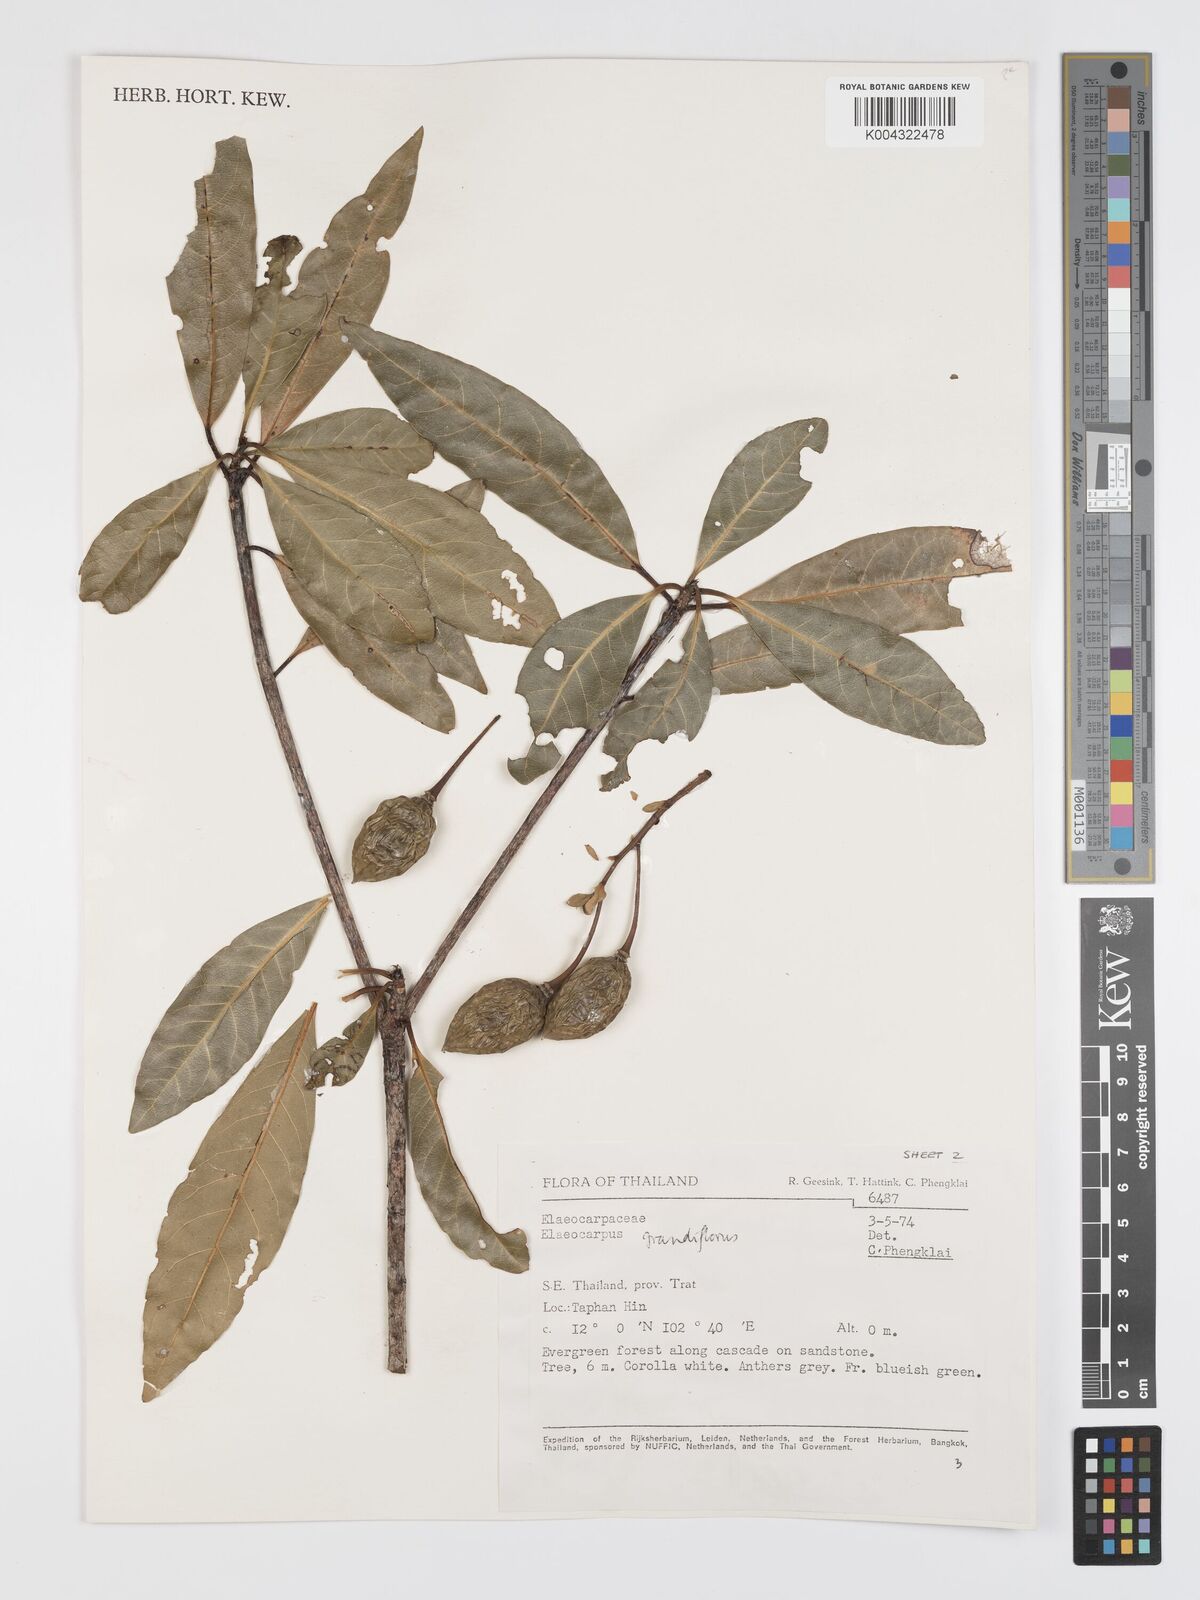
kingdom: Plantae
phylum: Tracheophyta
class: Magnoliopsida
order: Oxalidales
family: Elaeocarpaceae
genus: Elaeocarpus
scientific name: Elaeocarpus grandiflorus
